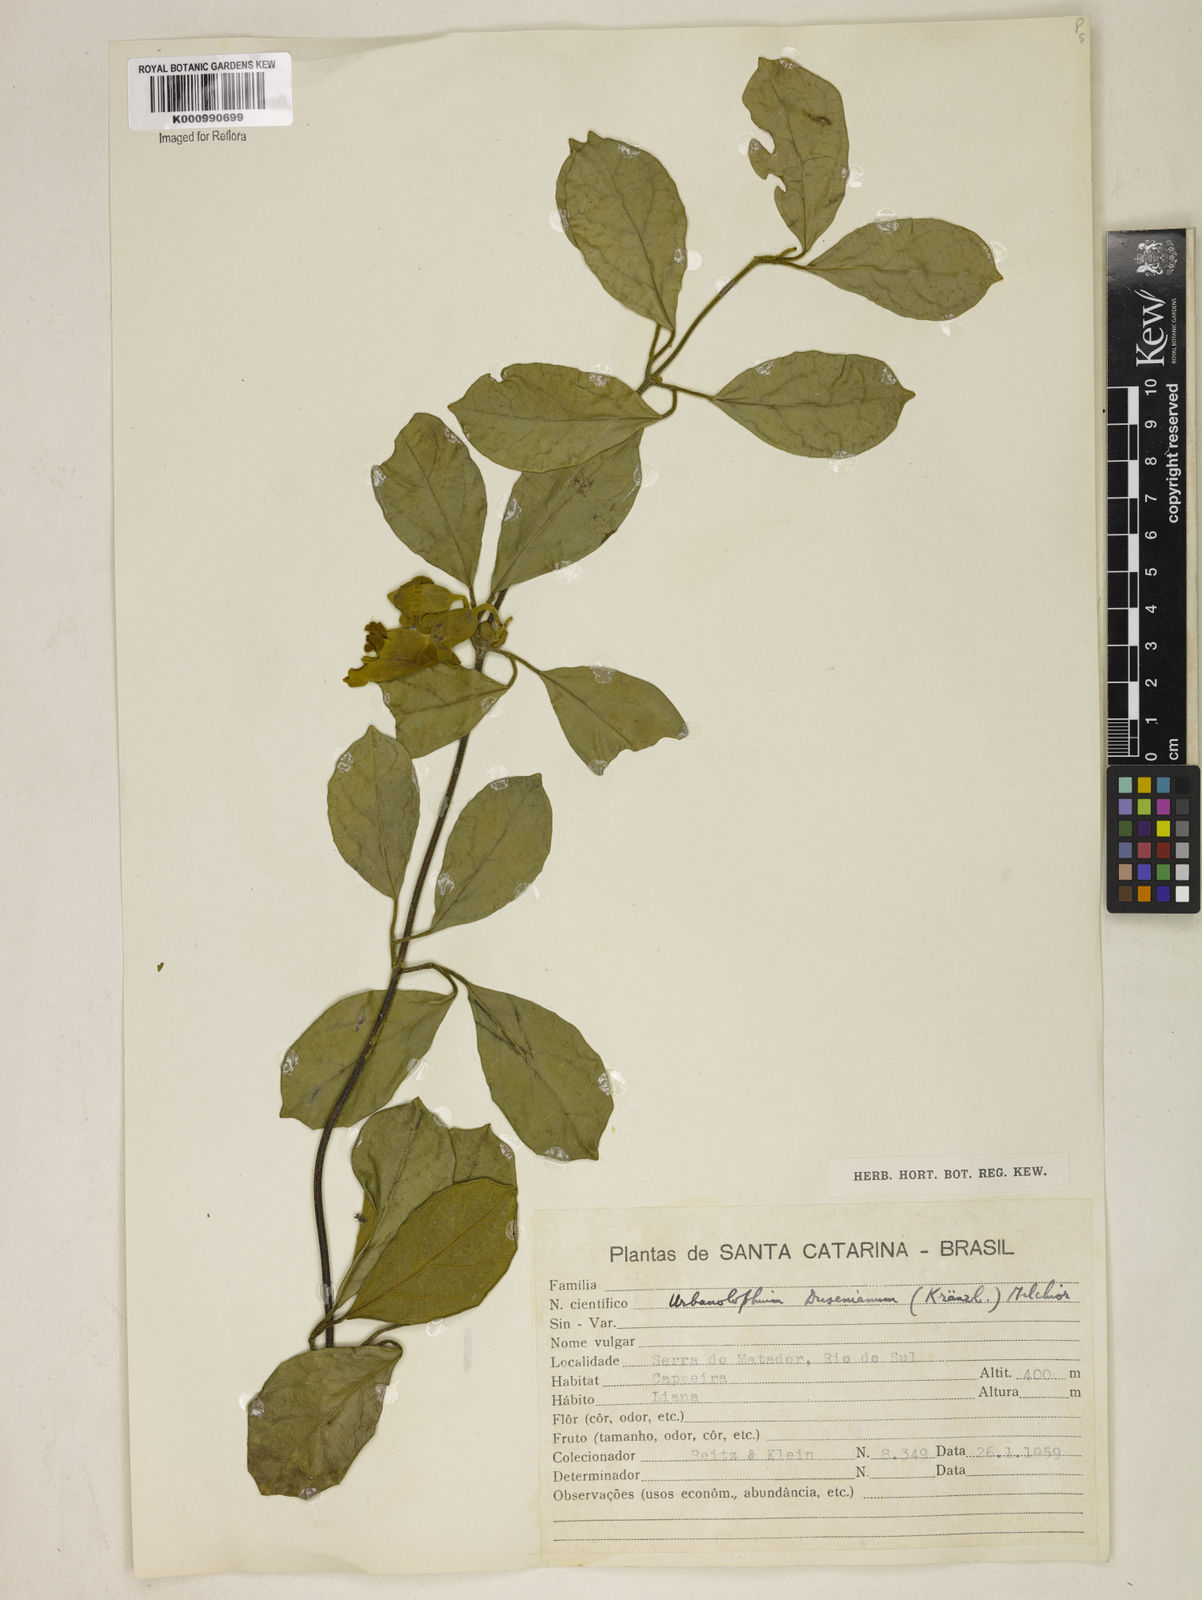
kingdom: Plantae
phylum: Tracheophyta
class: Magnoliopsida
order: Lamiales
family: Bignoniaceae
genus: Amphilophium
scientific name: Amphilophium dusenianum
